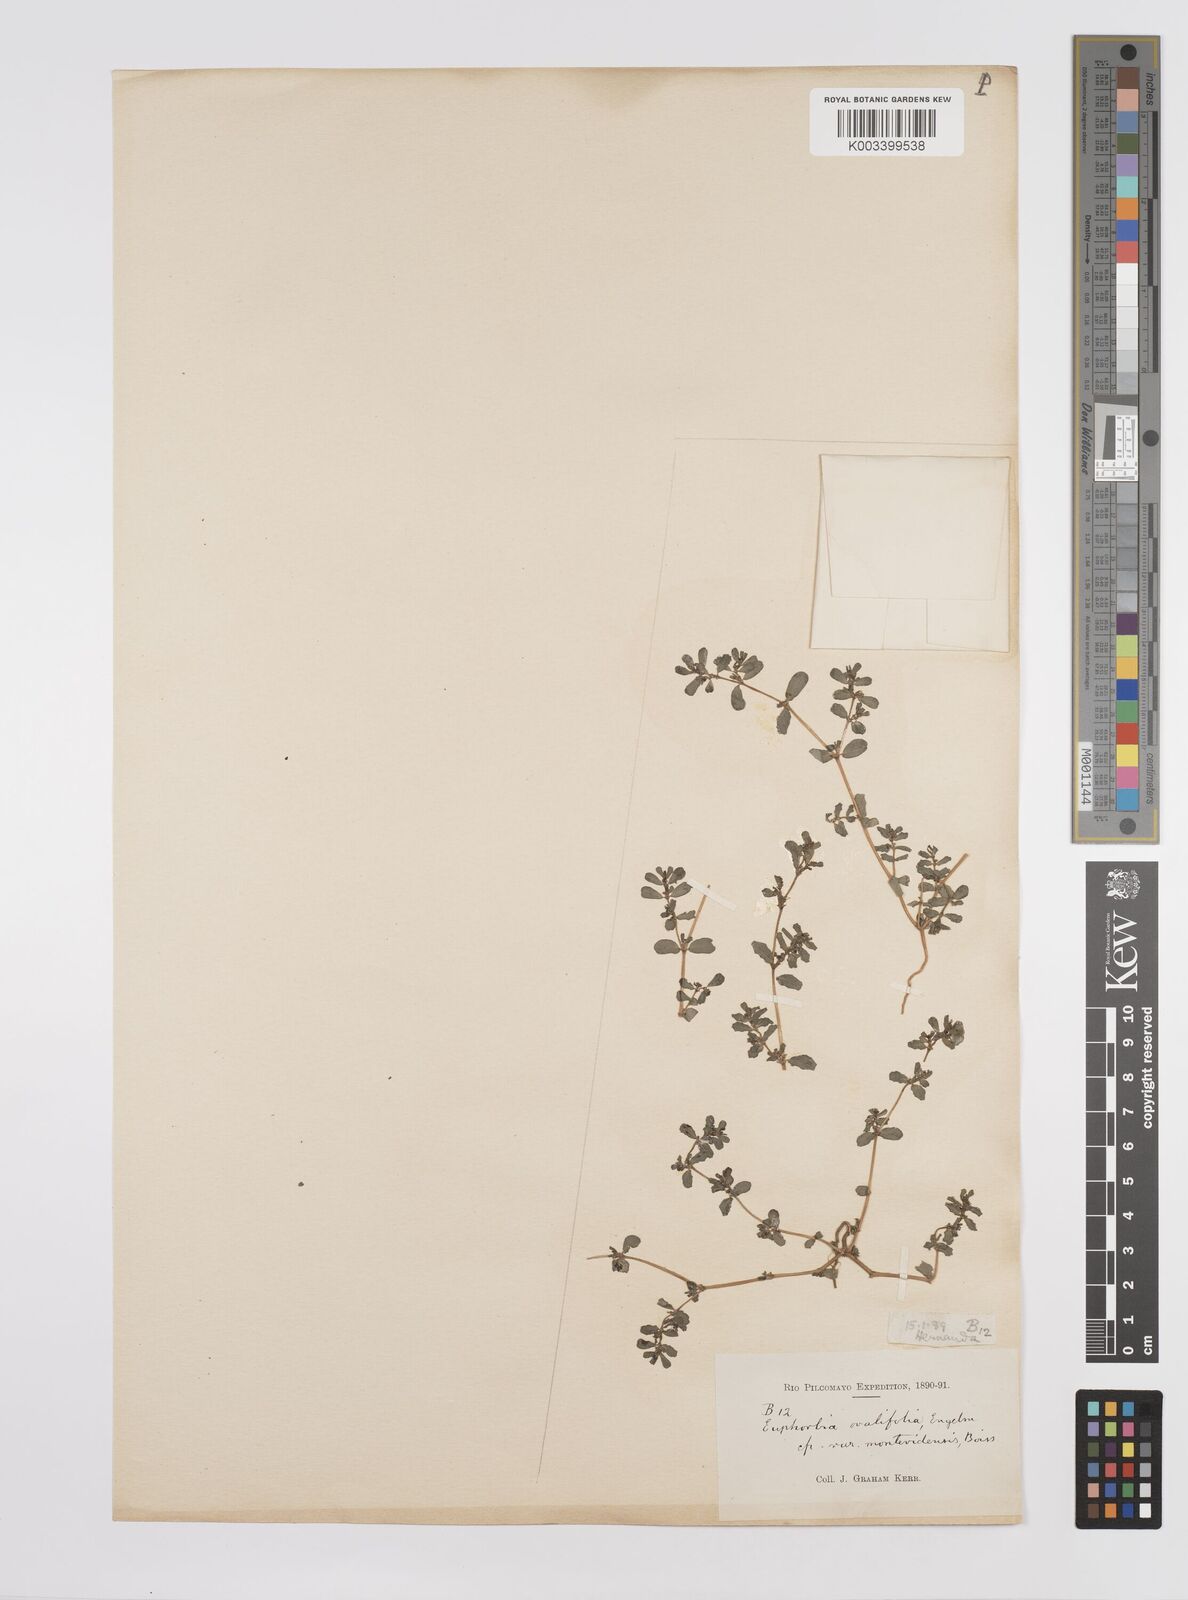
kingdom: Plantae
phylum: Tracheophyta
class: Magnoliopsida
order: Malpighiales
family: Euphorbiaceae
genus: Euphorbia
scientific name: Euphorbia
